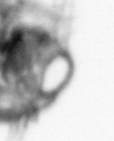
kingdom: Animalia
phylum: Arthropoda
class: Copepoda
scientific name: Copepoda
